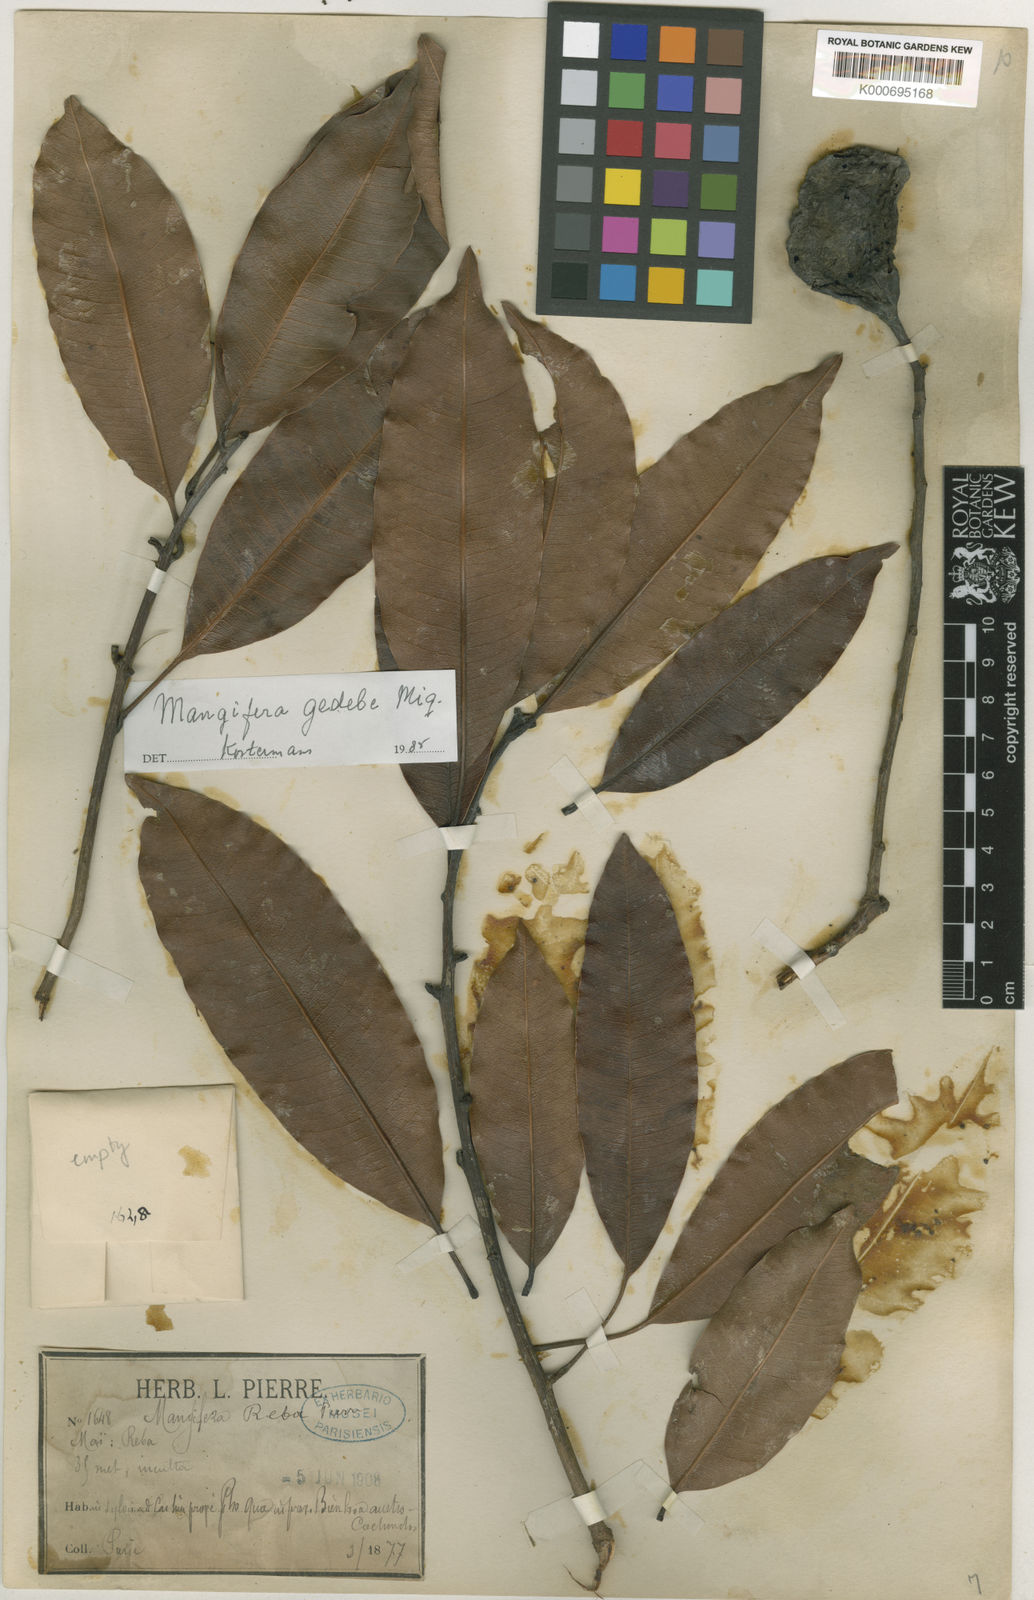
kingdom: Plantae
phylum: Tracheophyta
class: Magnoliopsida
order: Sapindales
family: Anacardiaceae
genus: Mangifera
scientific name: Mangifera reba
